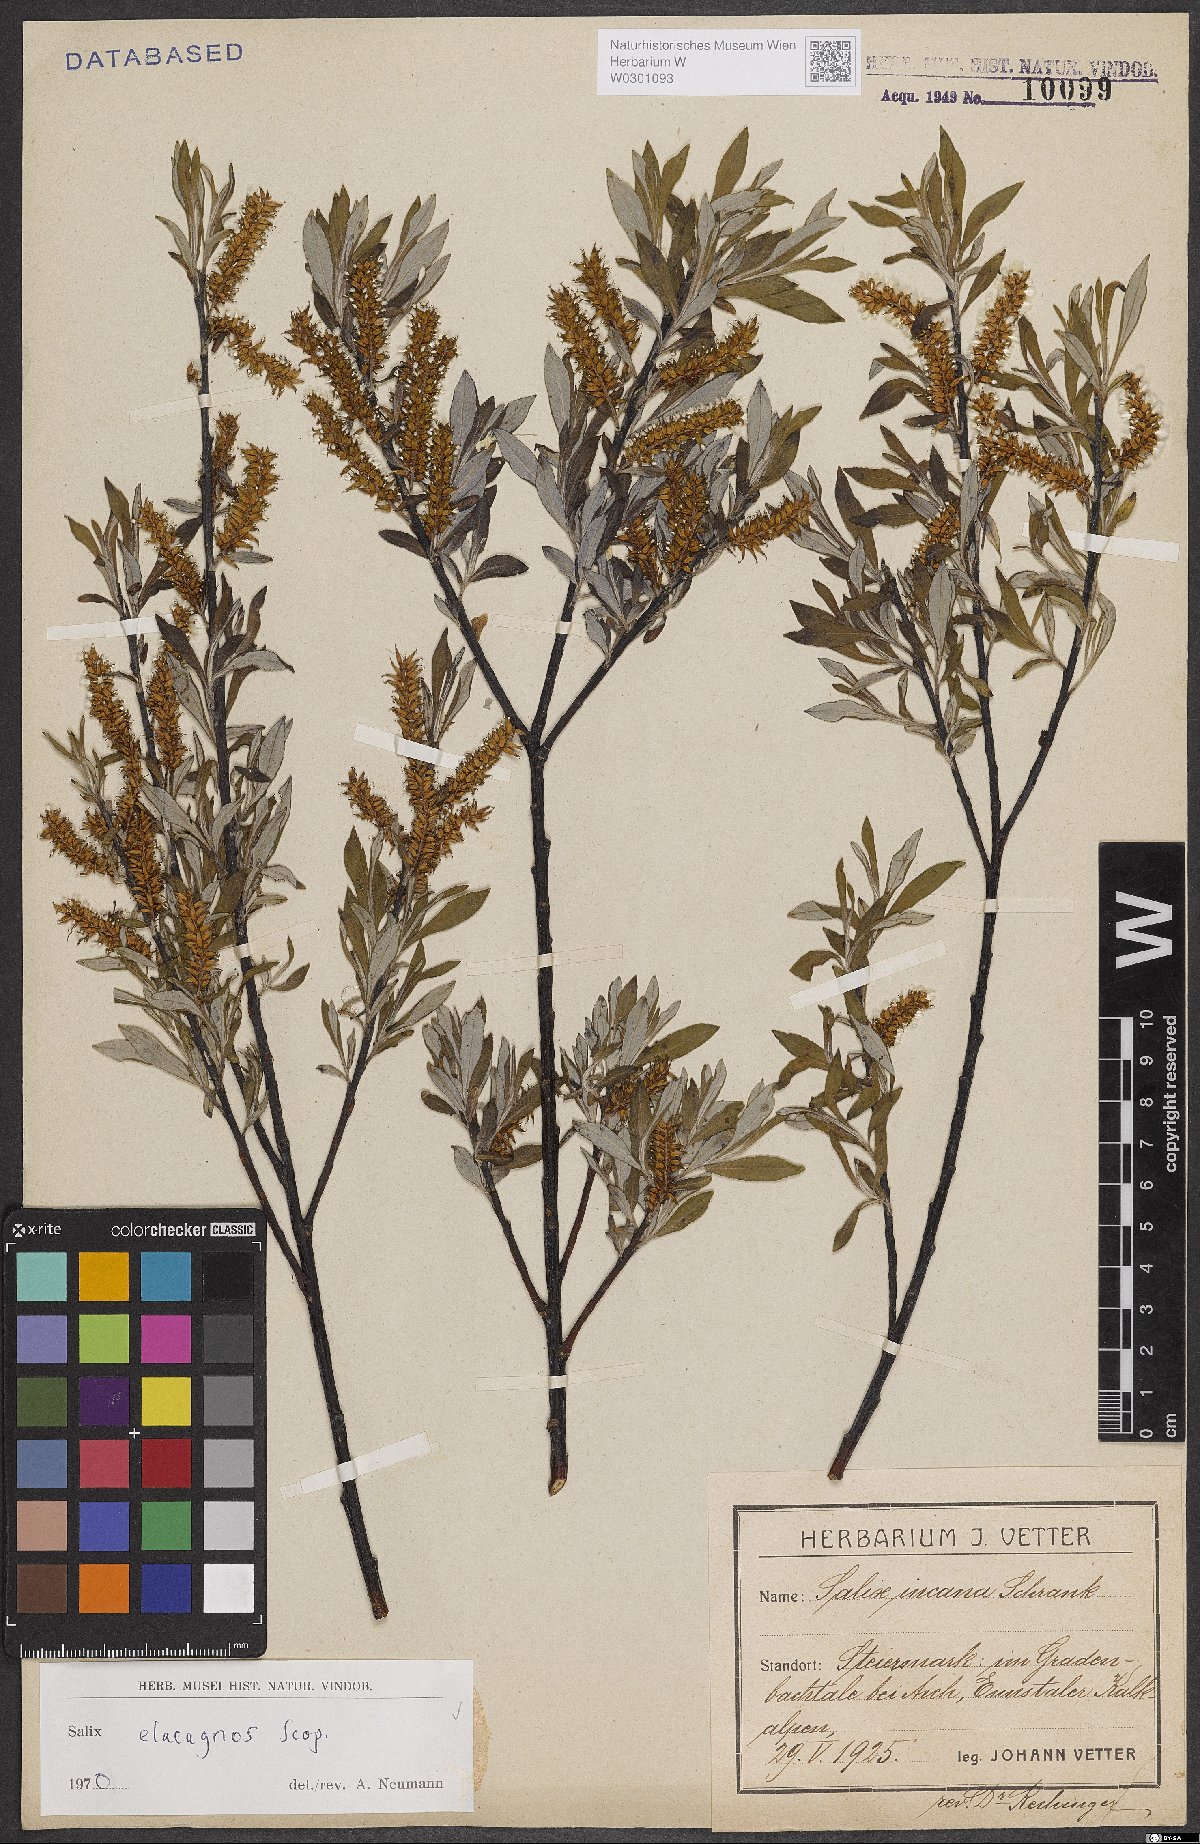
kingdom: Plantae
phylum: Tracheophyta
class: Magnoliopsida
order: Malpighiales
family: Salicaceae
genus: Salix
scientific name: Salix eleagnos
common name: Elaeagnus willow
